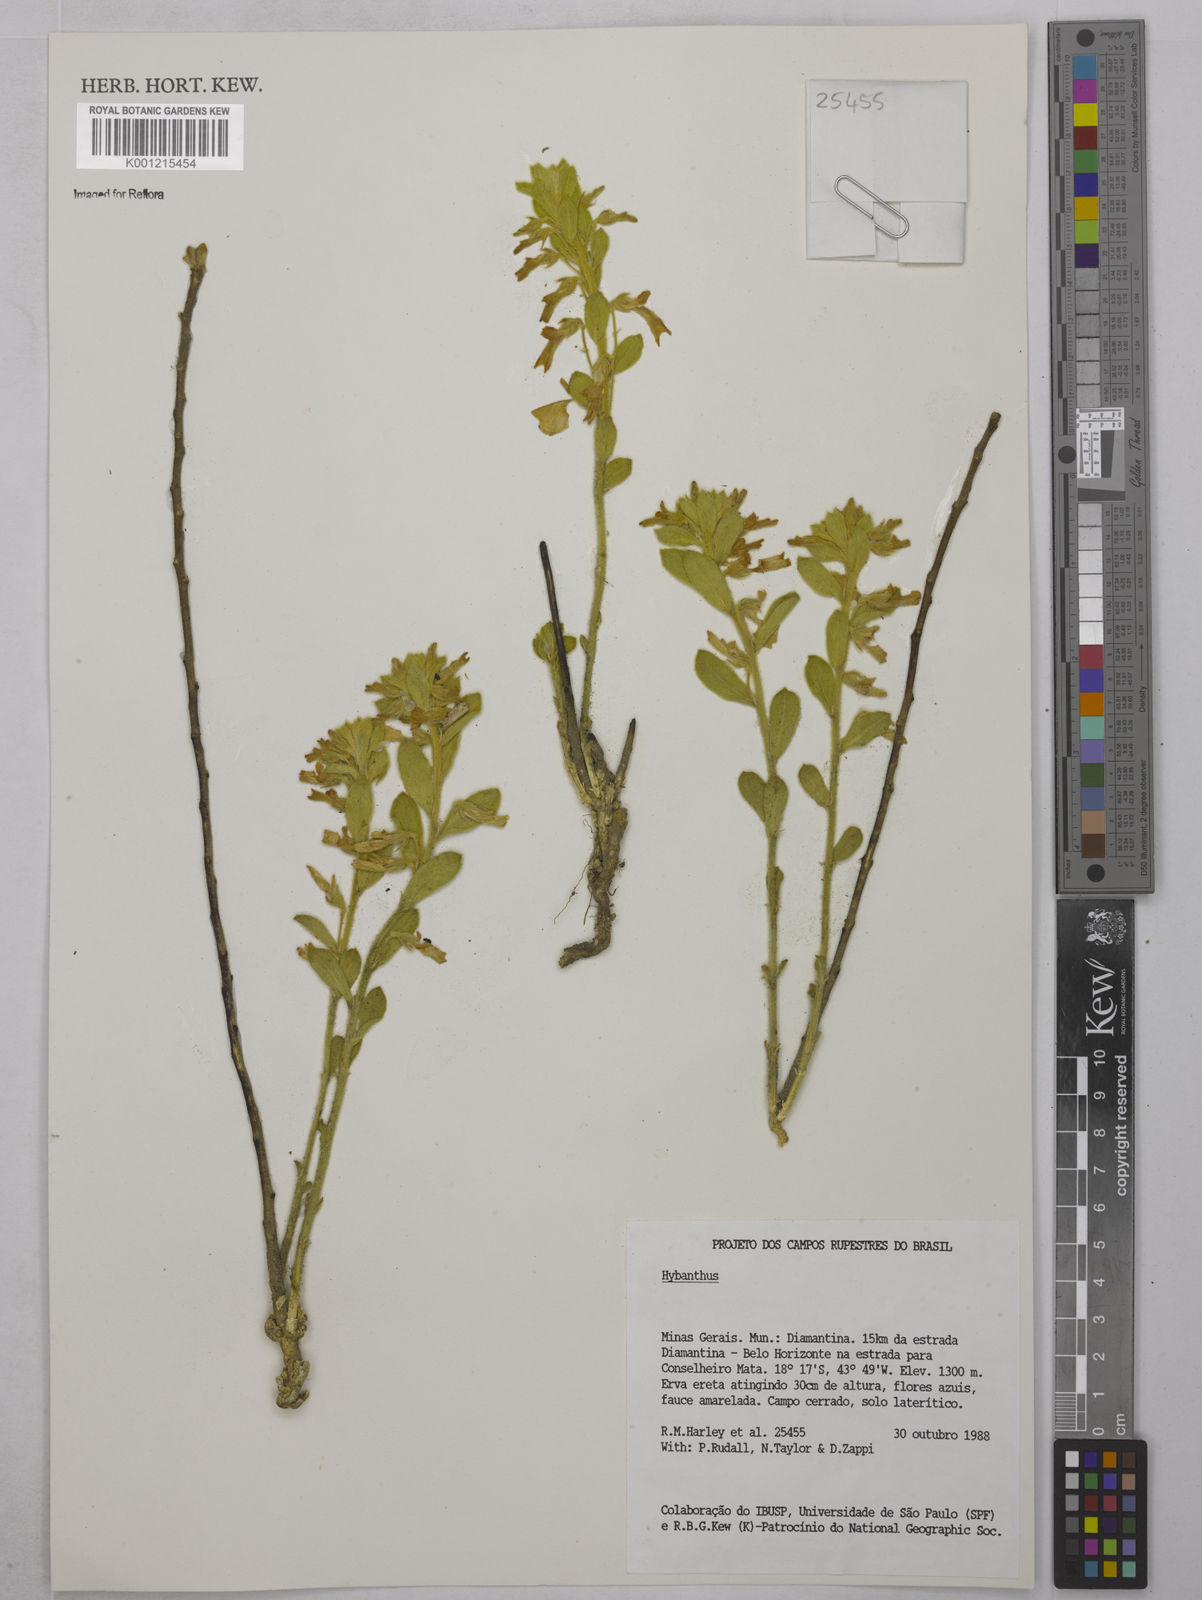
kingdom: Plantae
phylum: Tracheophyta
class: Magnoliopsida
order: Malpighiales
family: Violaceae
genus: Hybanthus
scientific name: Hybanthus
